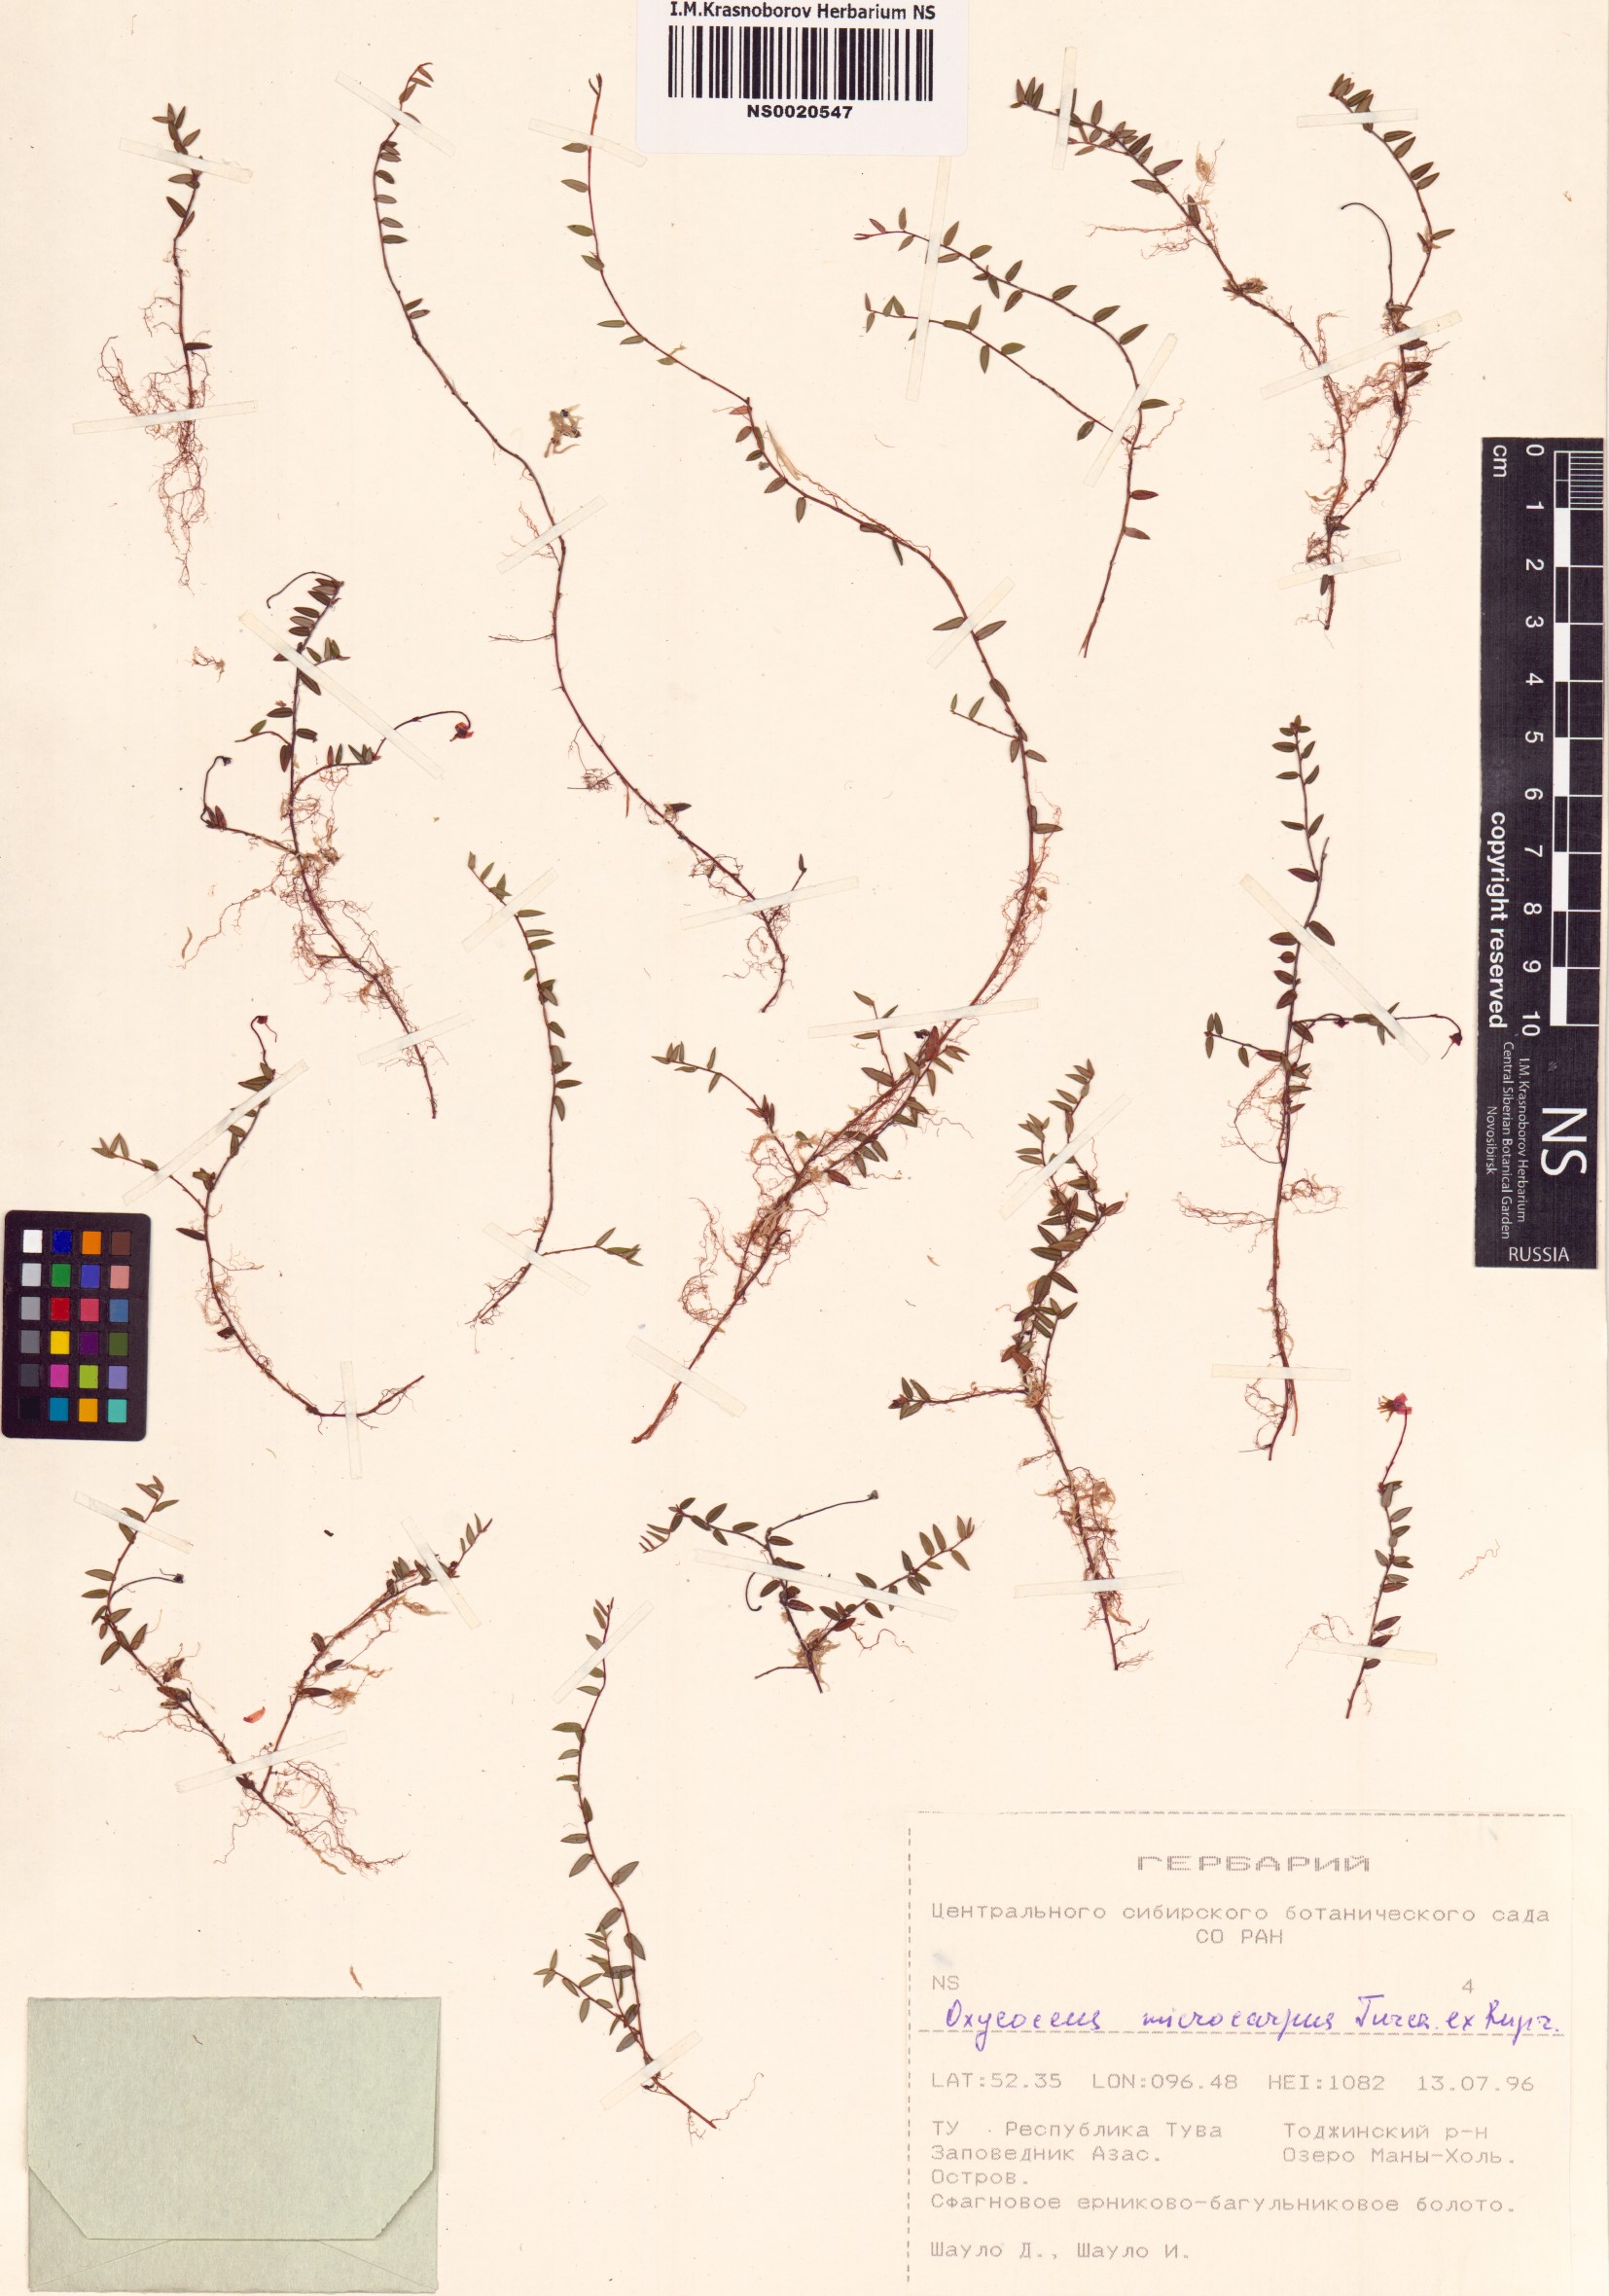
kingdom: Plantae
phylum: Tracheophyta
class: Magnoliopsida
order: Ericales
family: Ericaceae
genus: Vaccinium
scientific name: Vaccinium microcarpum
